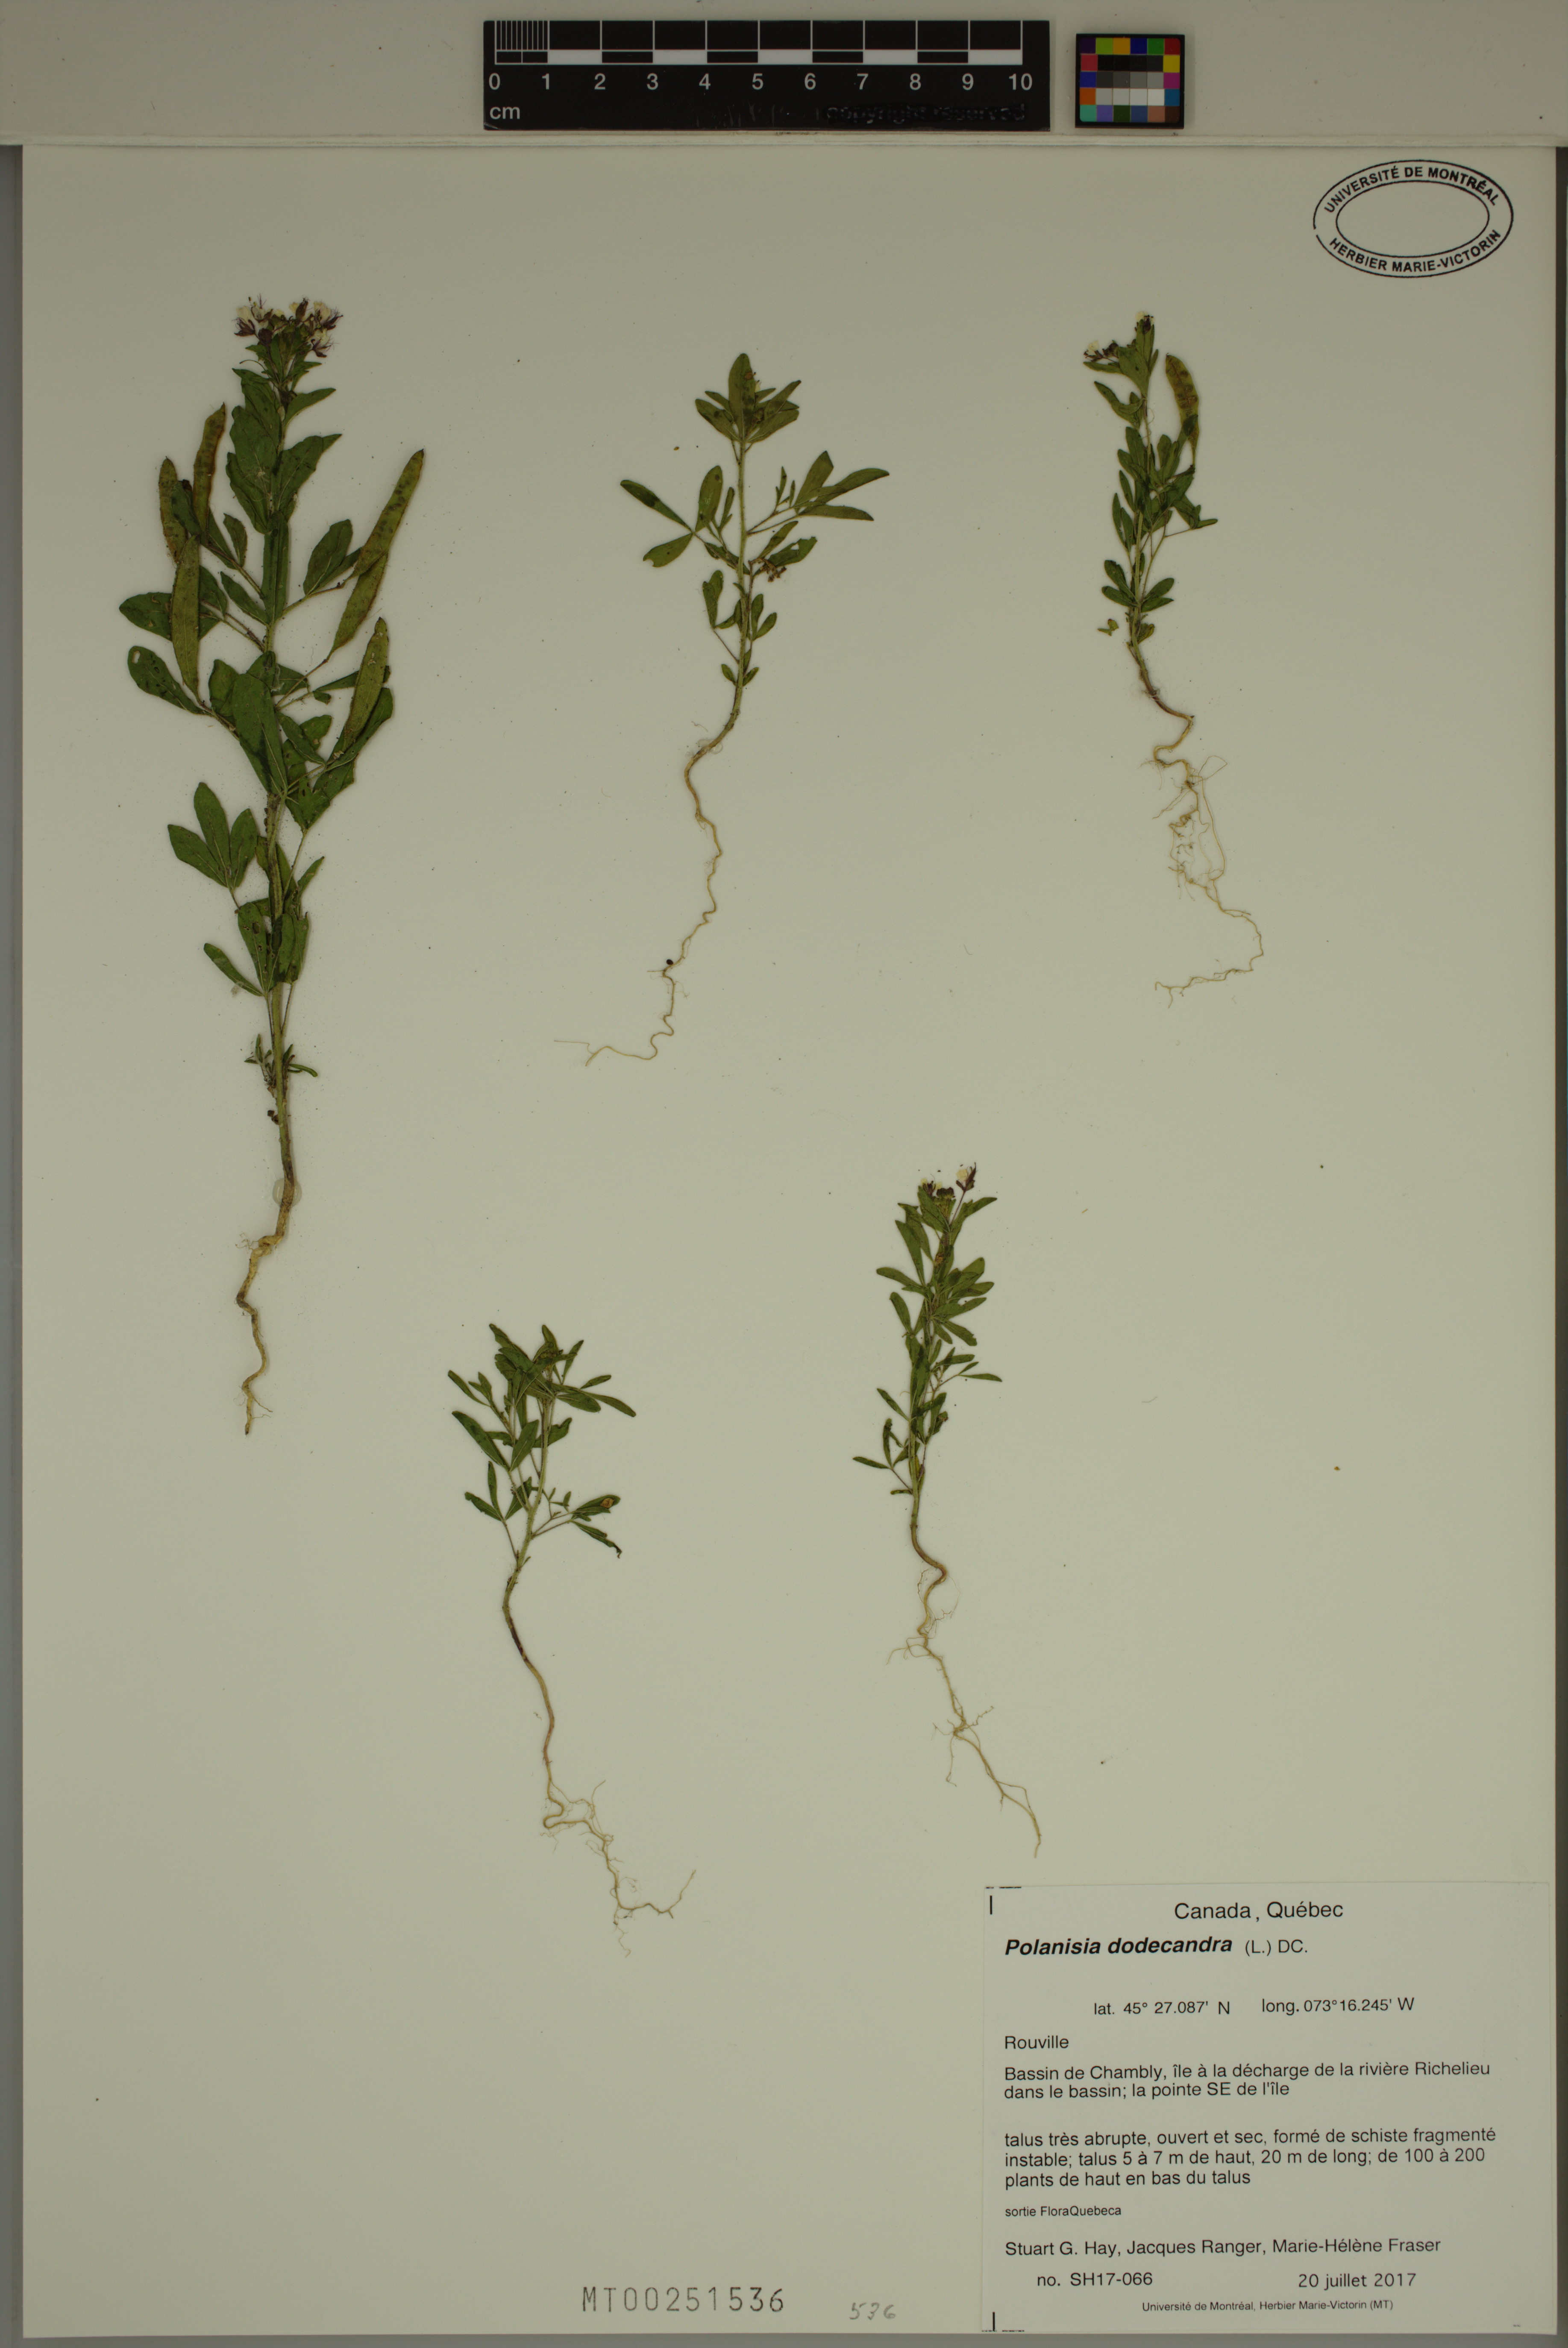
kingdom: Plantae
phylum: Tracheophyta
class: Magnoliopsida
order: Brassicales
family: Cleomaceae
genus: Polanisia
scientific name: Polanisia dodecandra
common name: Clammyweed
